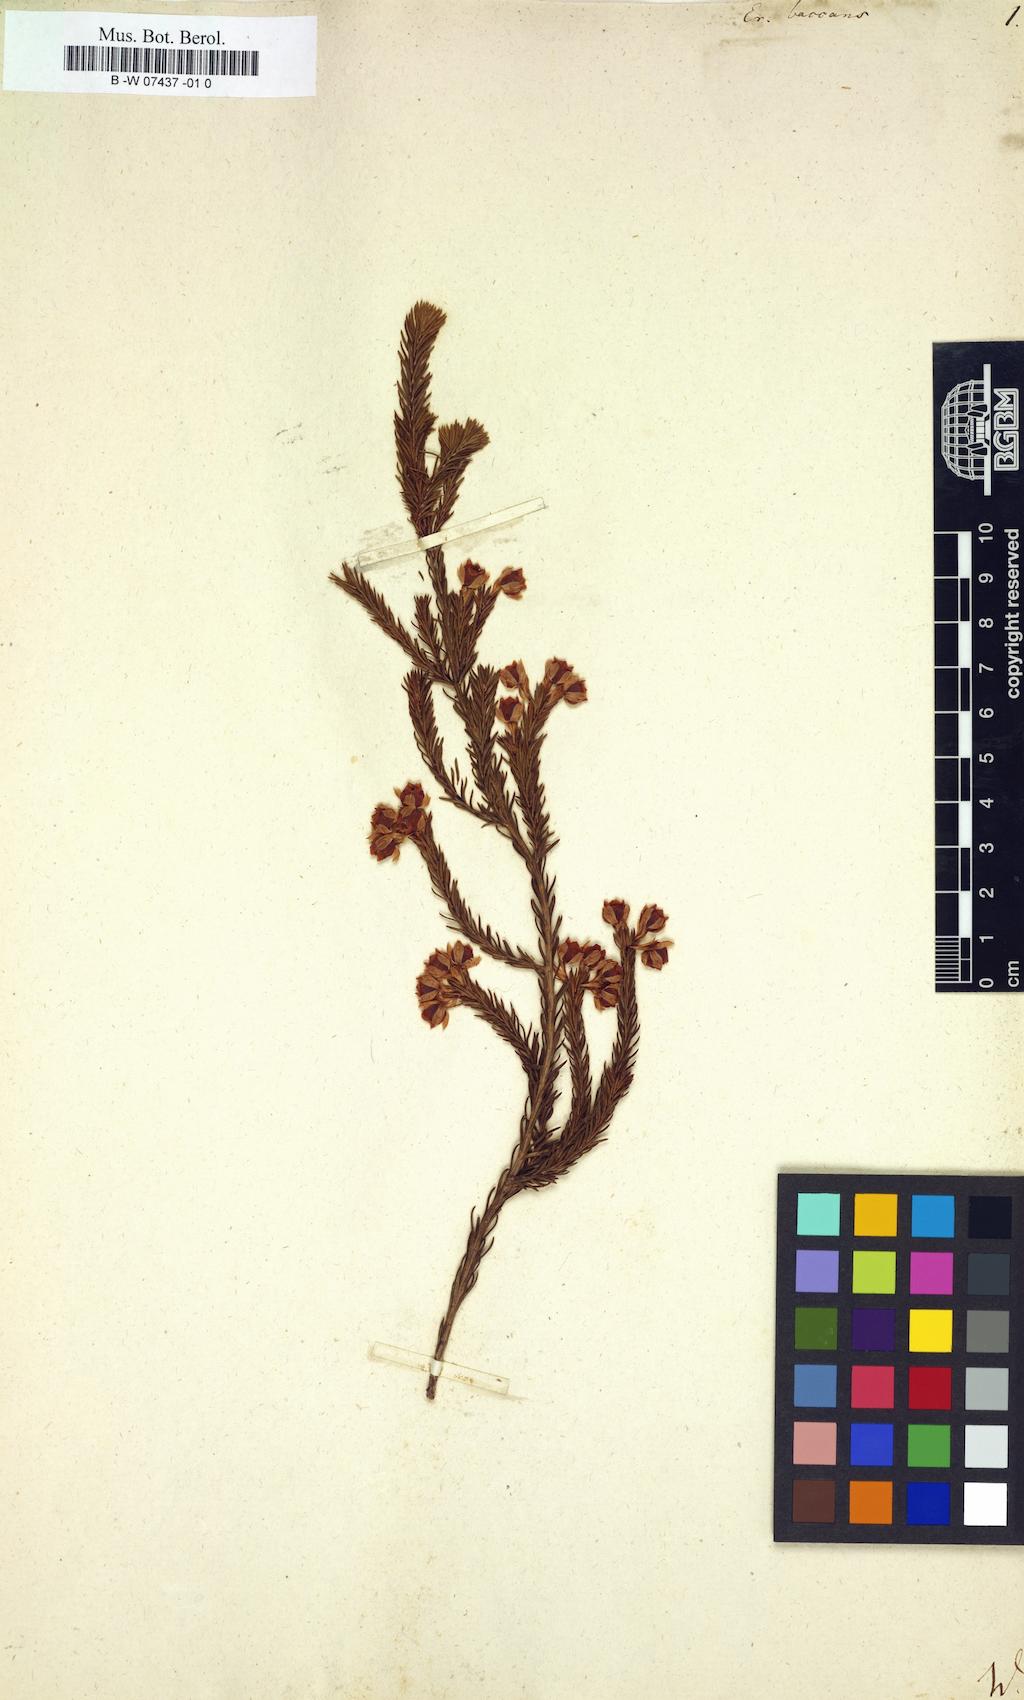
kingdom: Plantae
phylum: Tracheophyta
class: Magnoliopsida
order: Ericales
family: Ericaceae
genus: Erica
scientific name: Erica baccans
